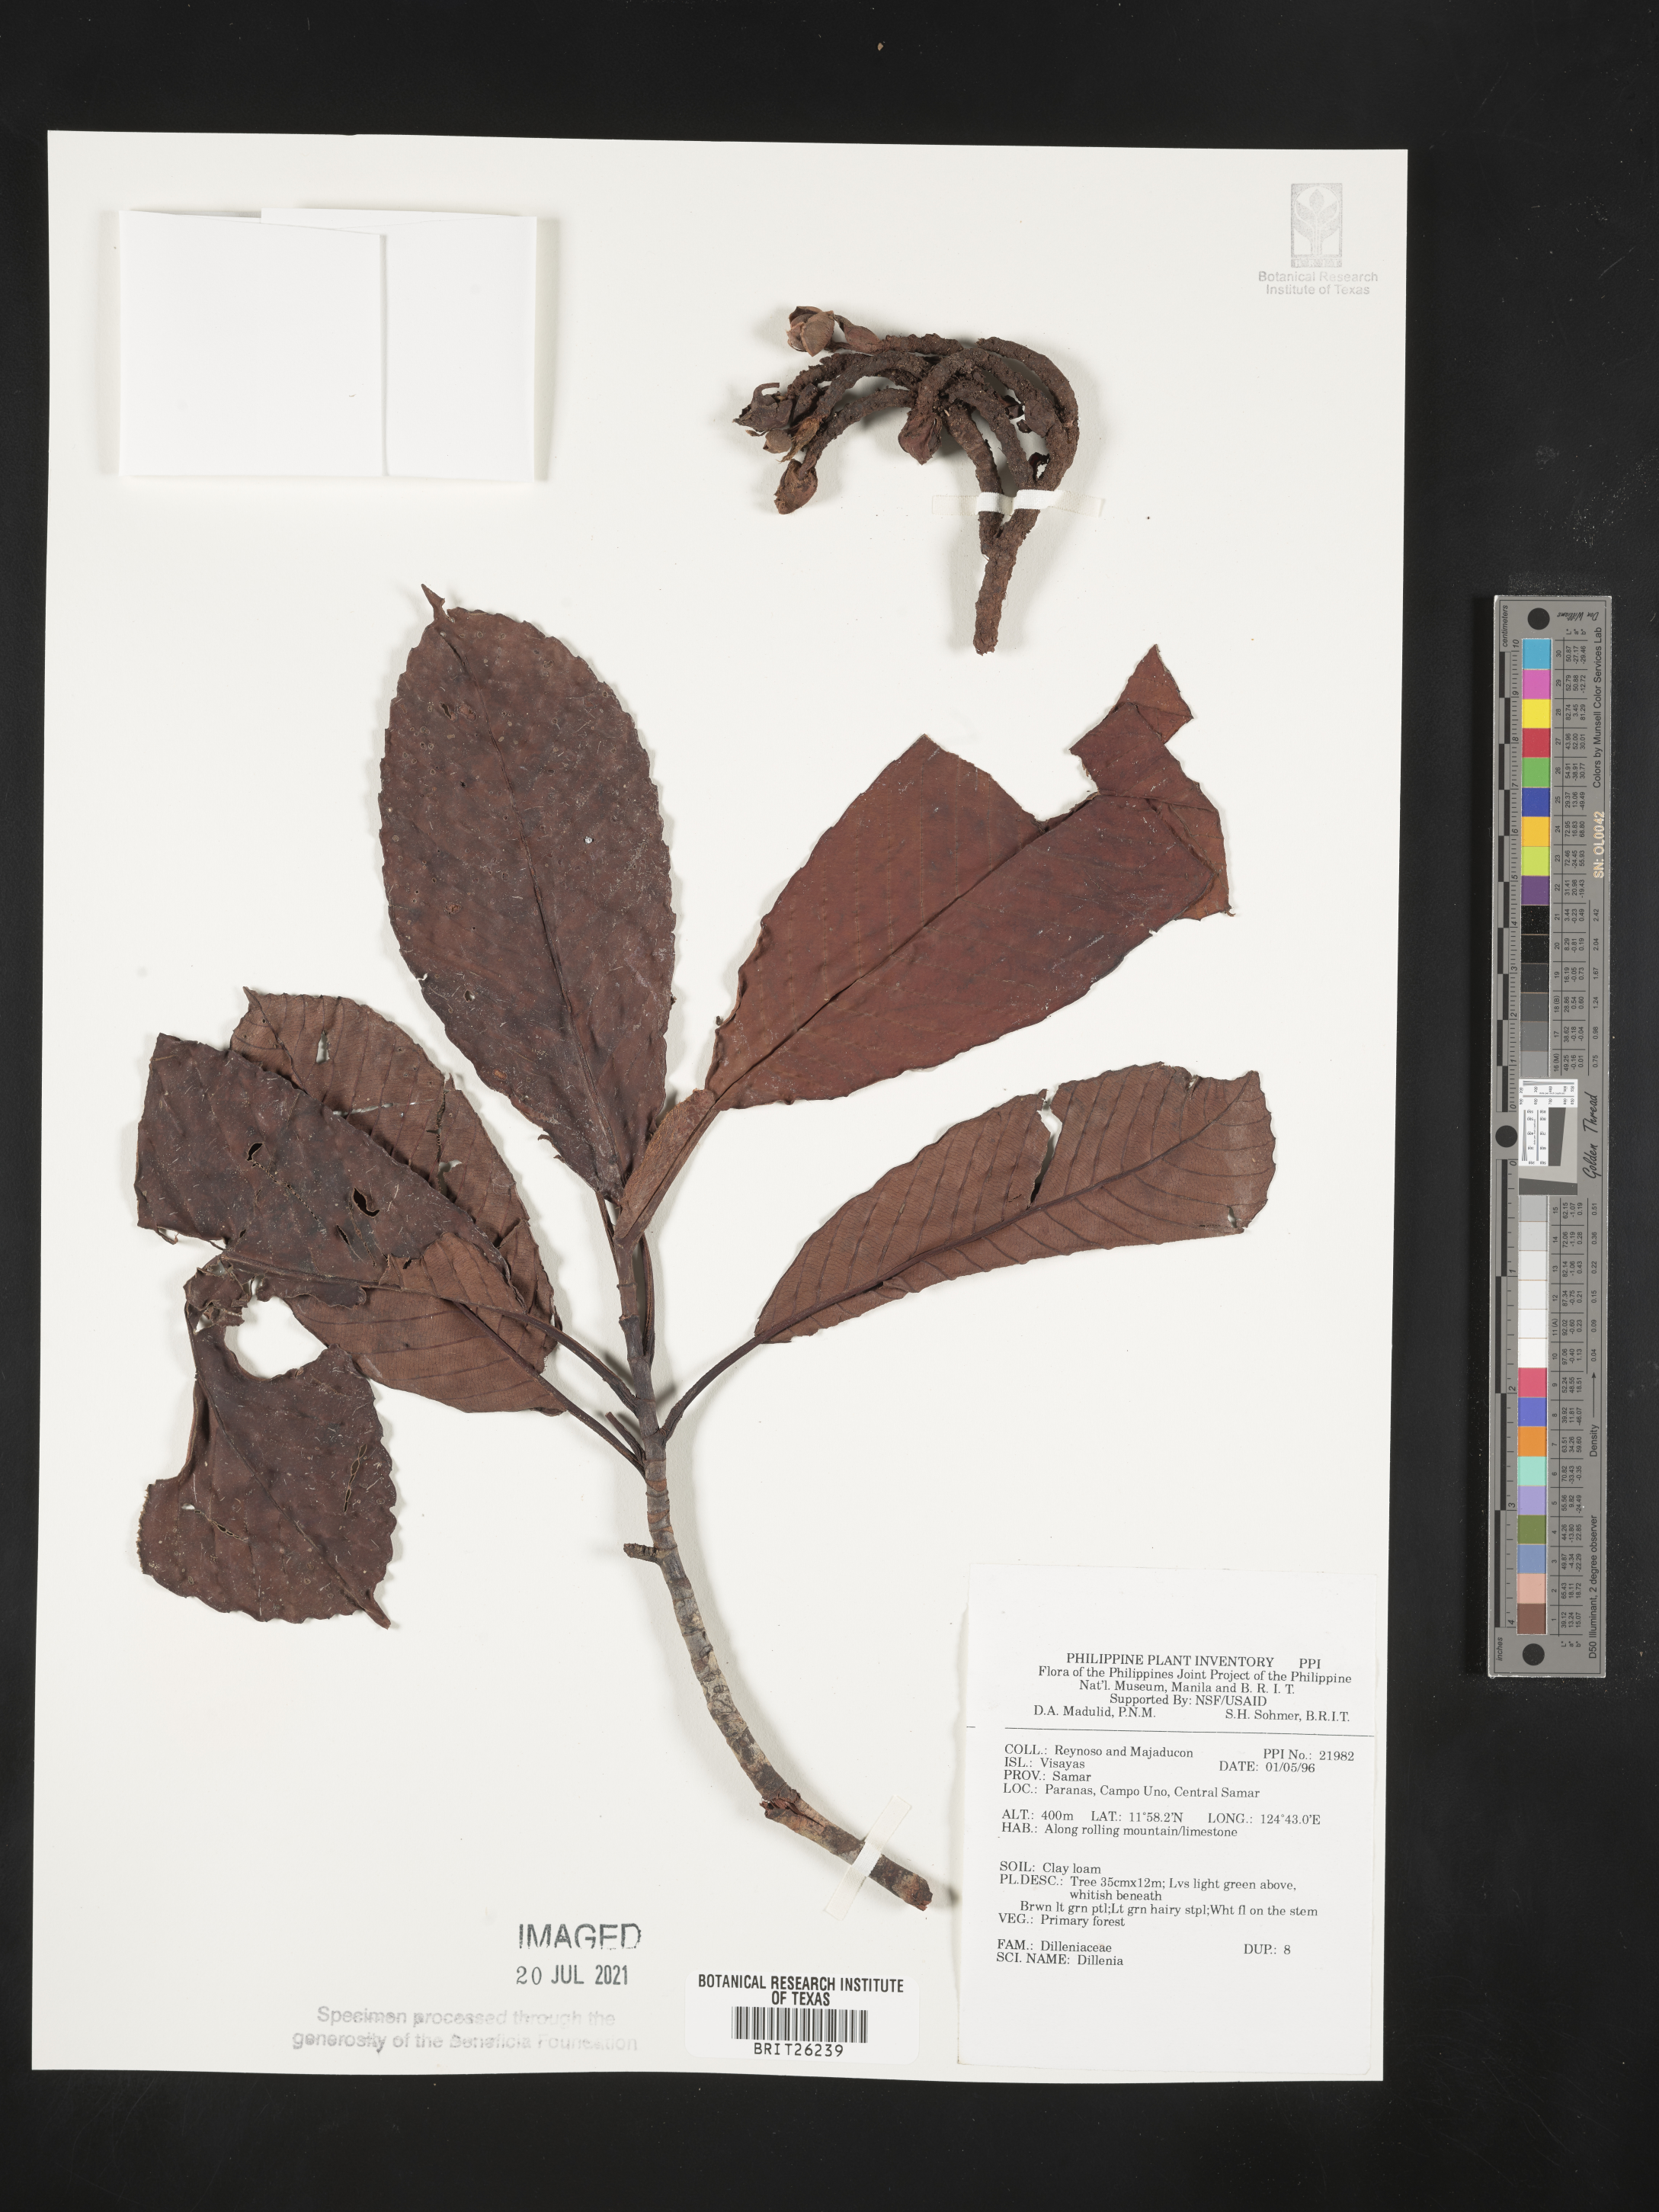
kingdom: Plantae
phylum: Tracheophyta
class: Magnoliopsida
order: Dilleniales
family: Dilleniaceae
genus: Dillenia
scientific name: Dillenia
